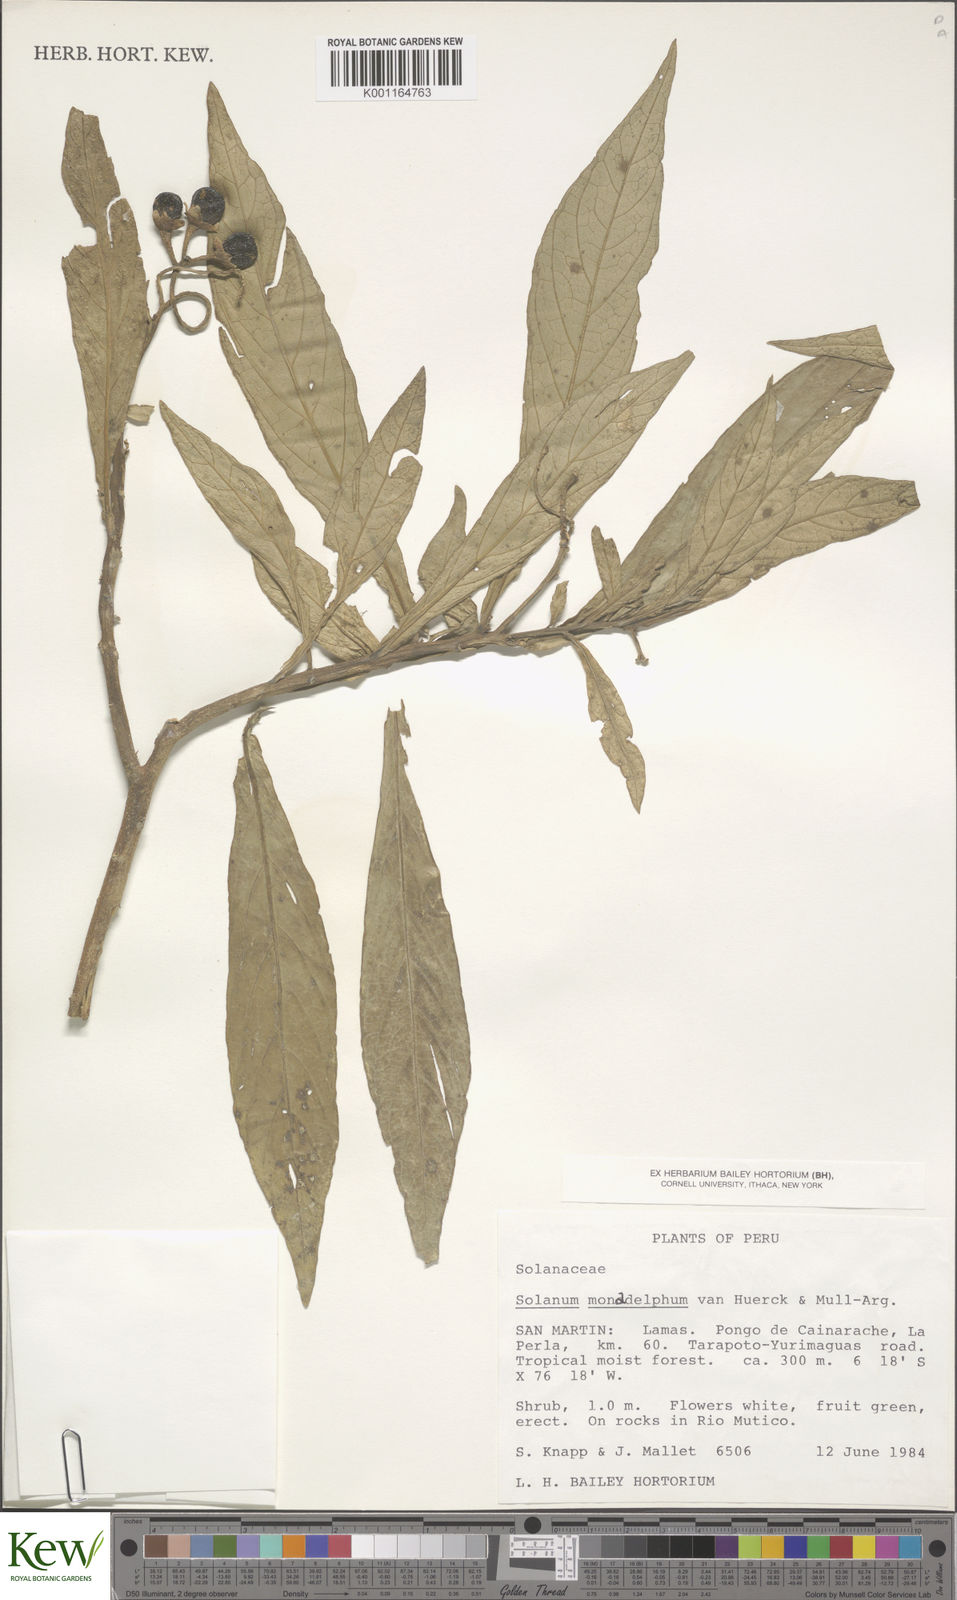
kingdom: Plantae
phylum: Tracheophyta
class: Magnoliopsida
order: Solanales
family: Solanaceae
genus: Solanum
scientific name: Solanum monadelphum
